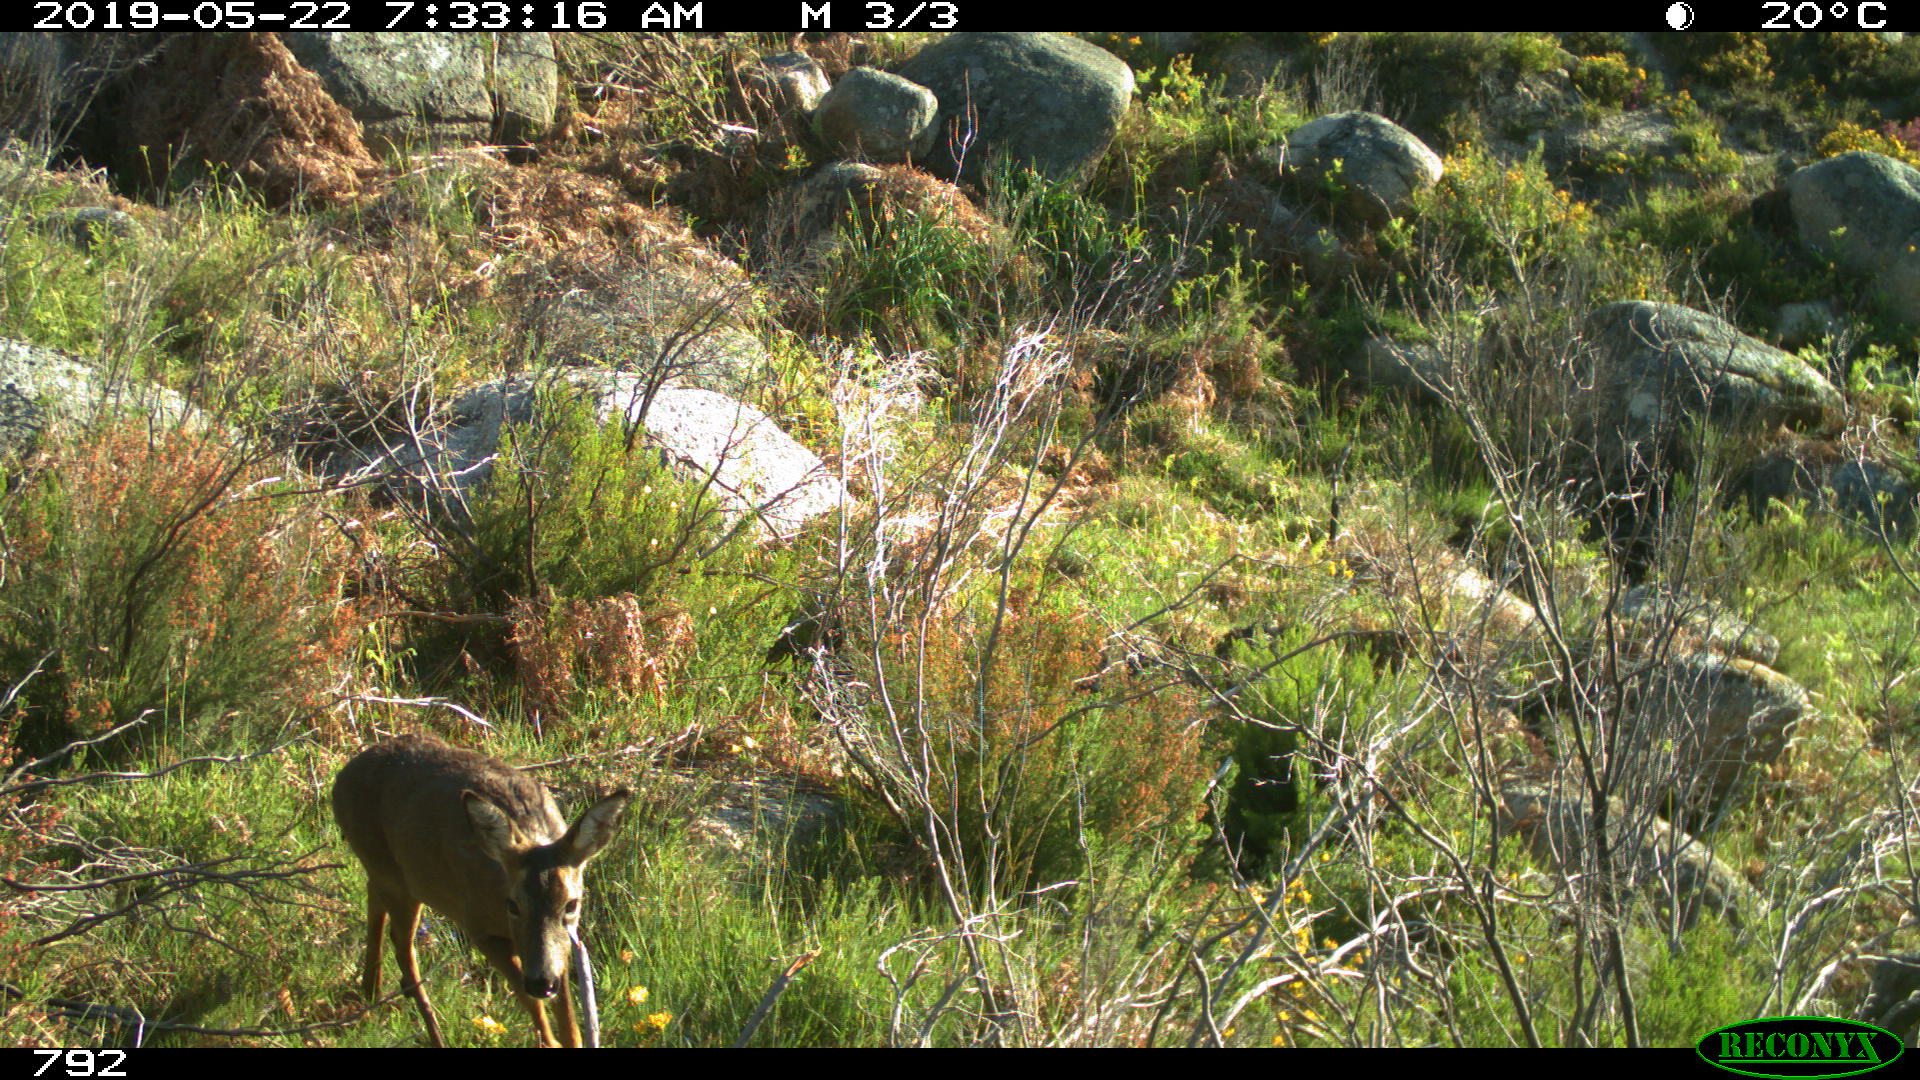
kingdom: Animalia
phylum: Chordata
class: Mammalia
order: Artiodactyla
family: Cervidae
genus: Capreolus
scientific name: Capreolus capreolus
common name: Western roe deer
